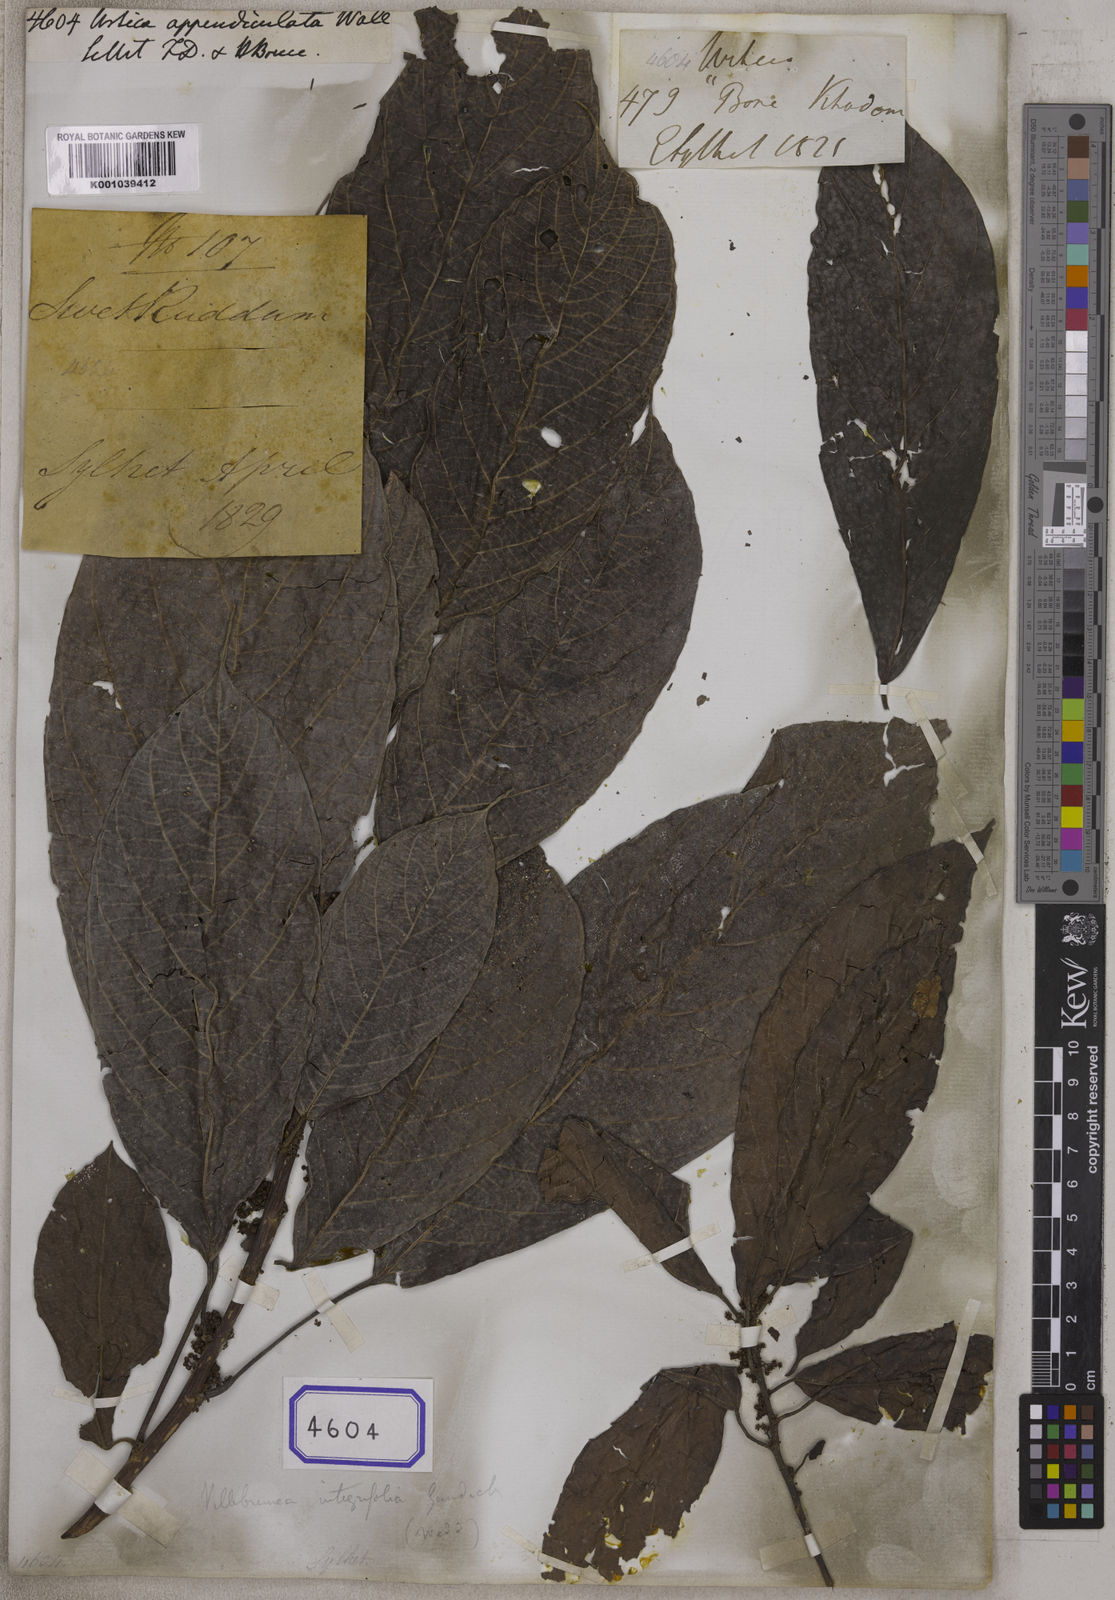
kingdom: Plantae
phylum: Tracheophyta
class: Magnoliopsida
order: Rosales
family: Urticaceae
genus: Oreocnide
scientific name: Oreocnide integrifolia
